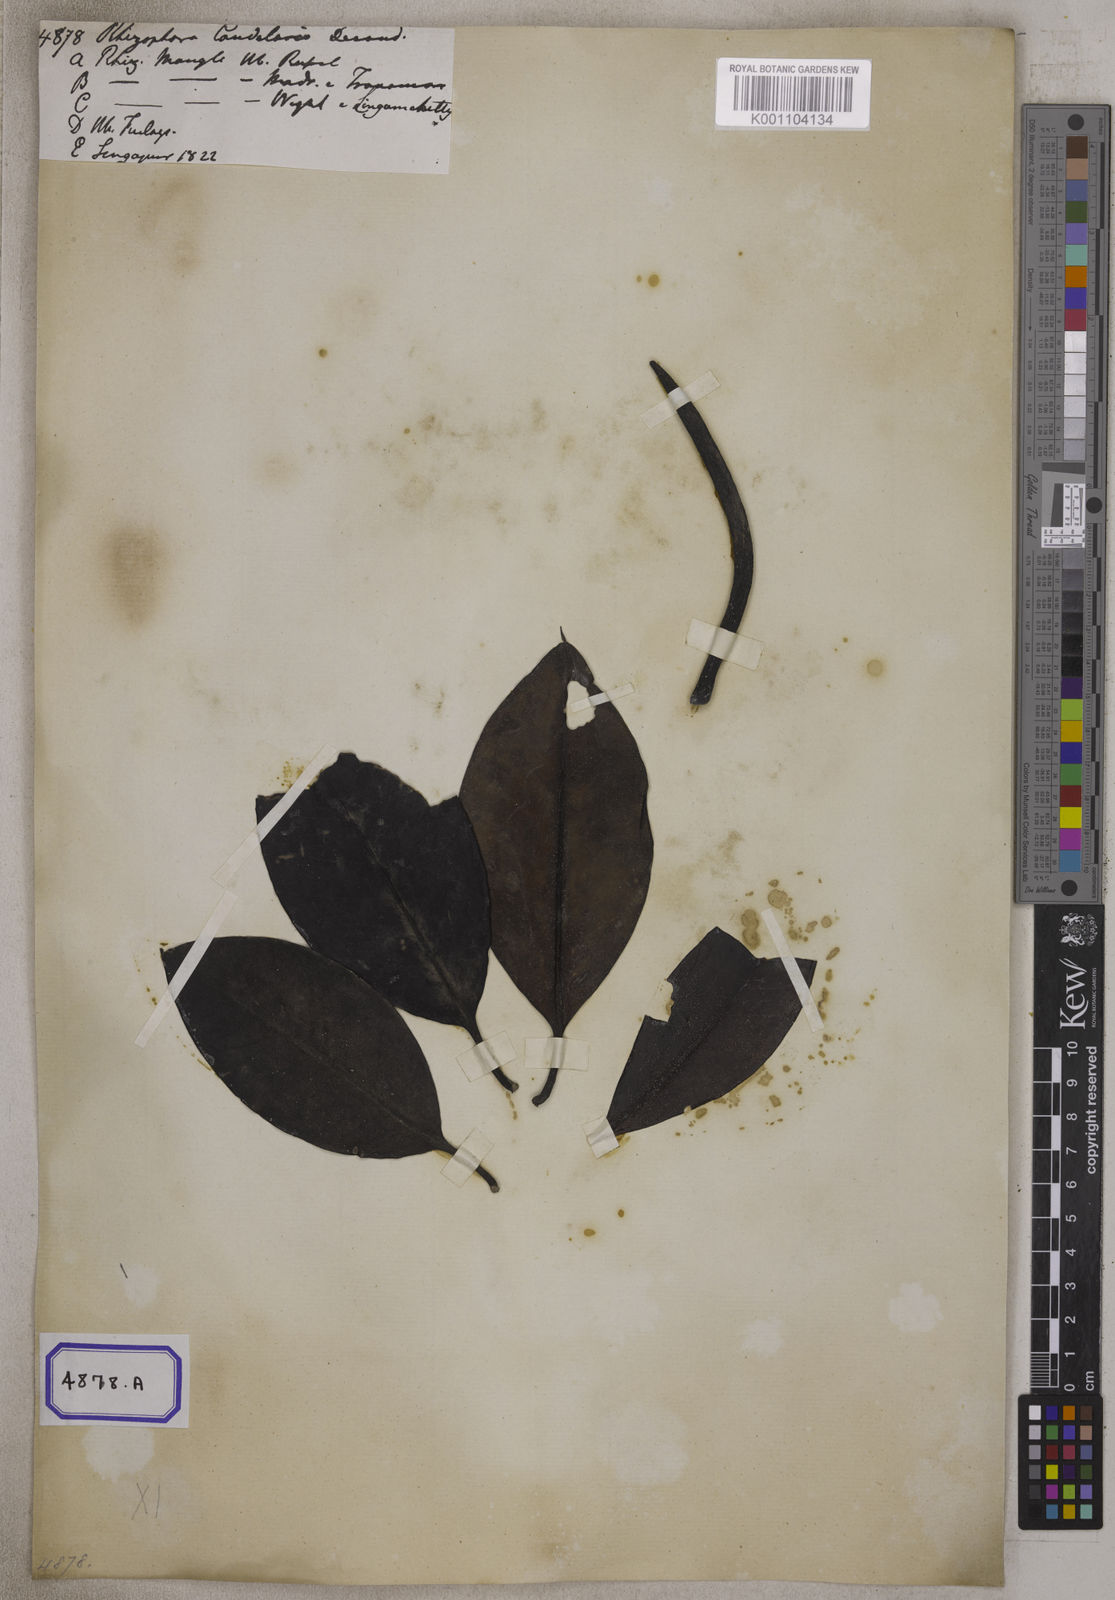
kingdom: Plantae
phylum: Tracheophyta
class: Magnoliopsida
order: Malpighiales
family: Rhizophoraceae
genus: Rhizophora
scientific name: Rhizophora
